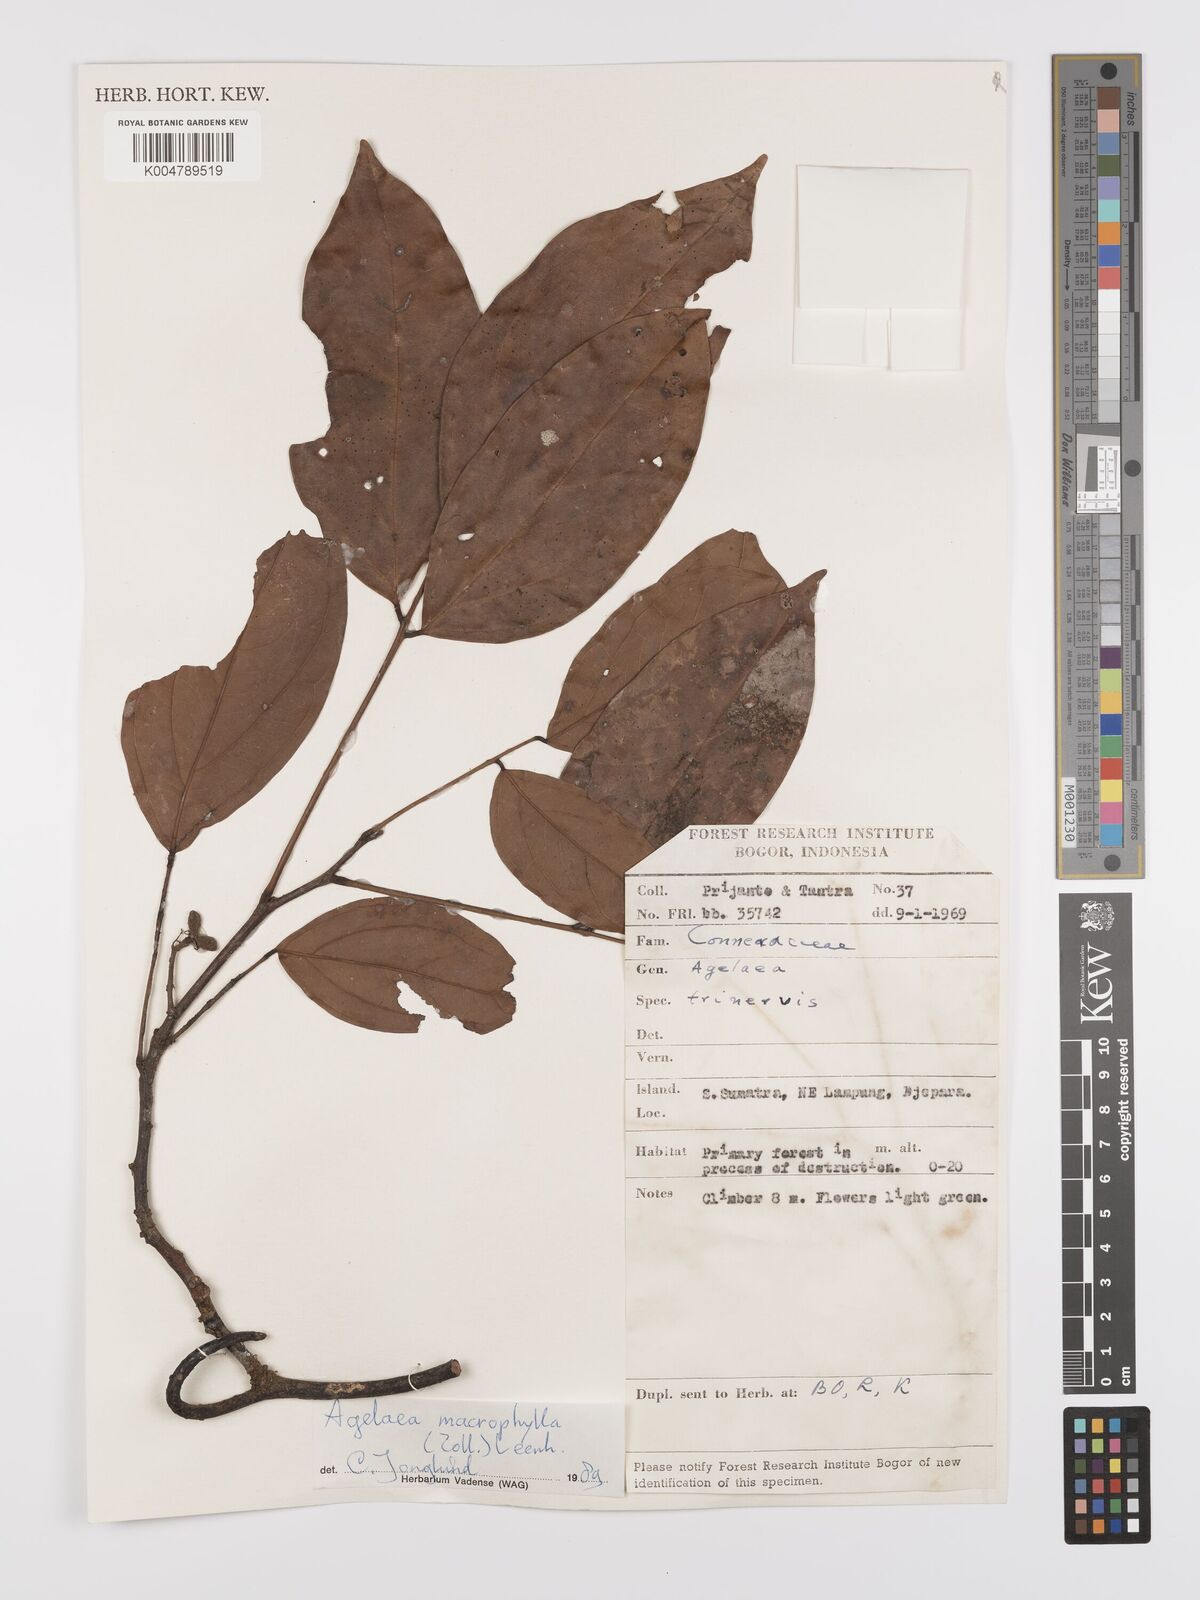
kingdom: Plantae
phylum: Tracheophyta
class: Magnoliopsida
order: Oxalidales
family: Connaraceae
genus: Agelaea
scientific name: Agelaea trinervis
